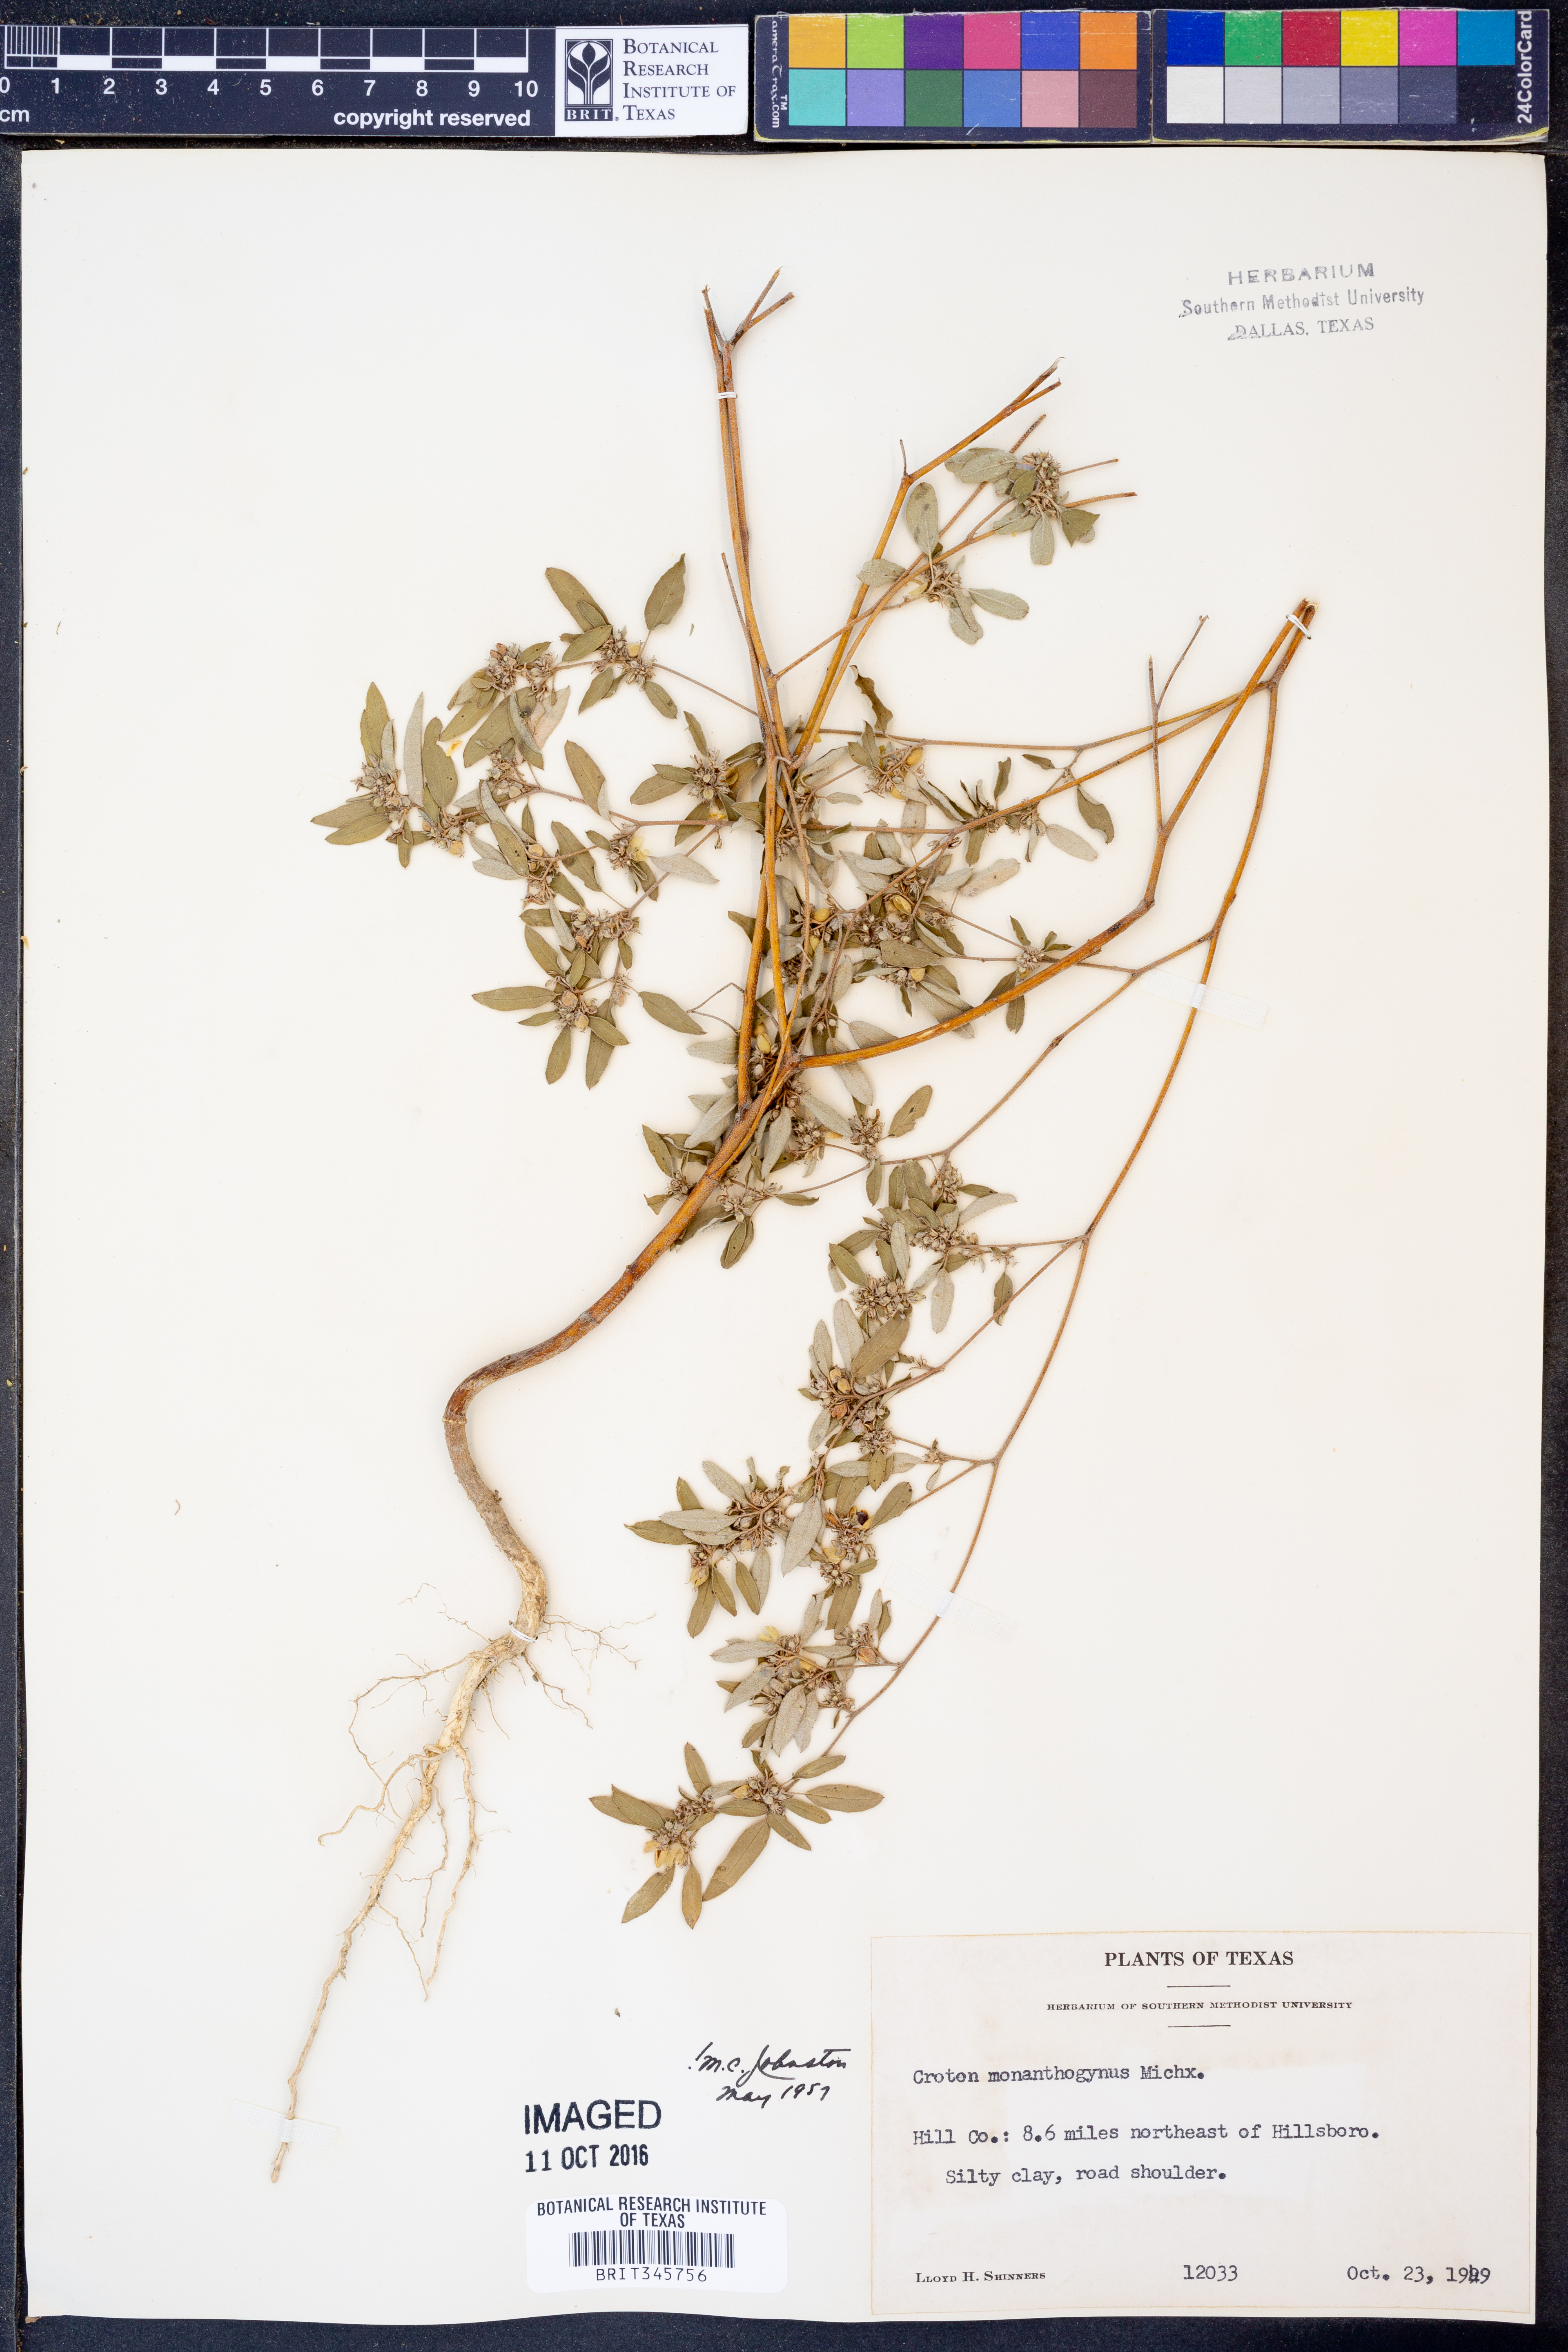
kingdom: Plantae
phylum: Tracheophyta
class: Magnoliopsida
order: Malpighiales
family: Euphorbiaceae
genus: Croton
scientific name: Croton monanthogynus
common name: One-seed croton
